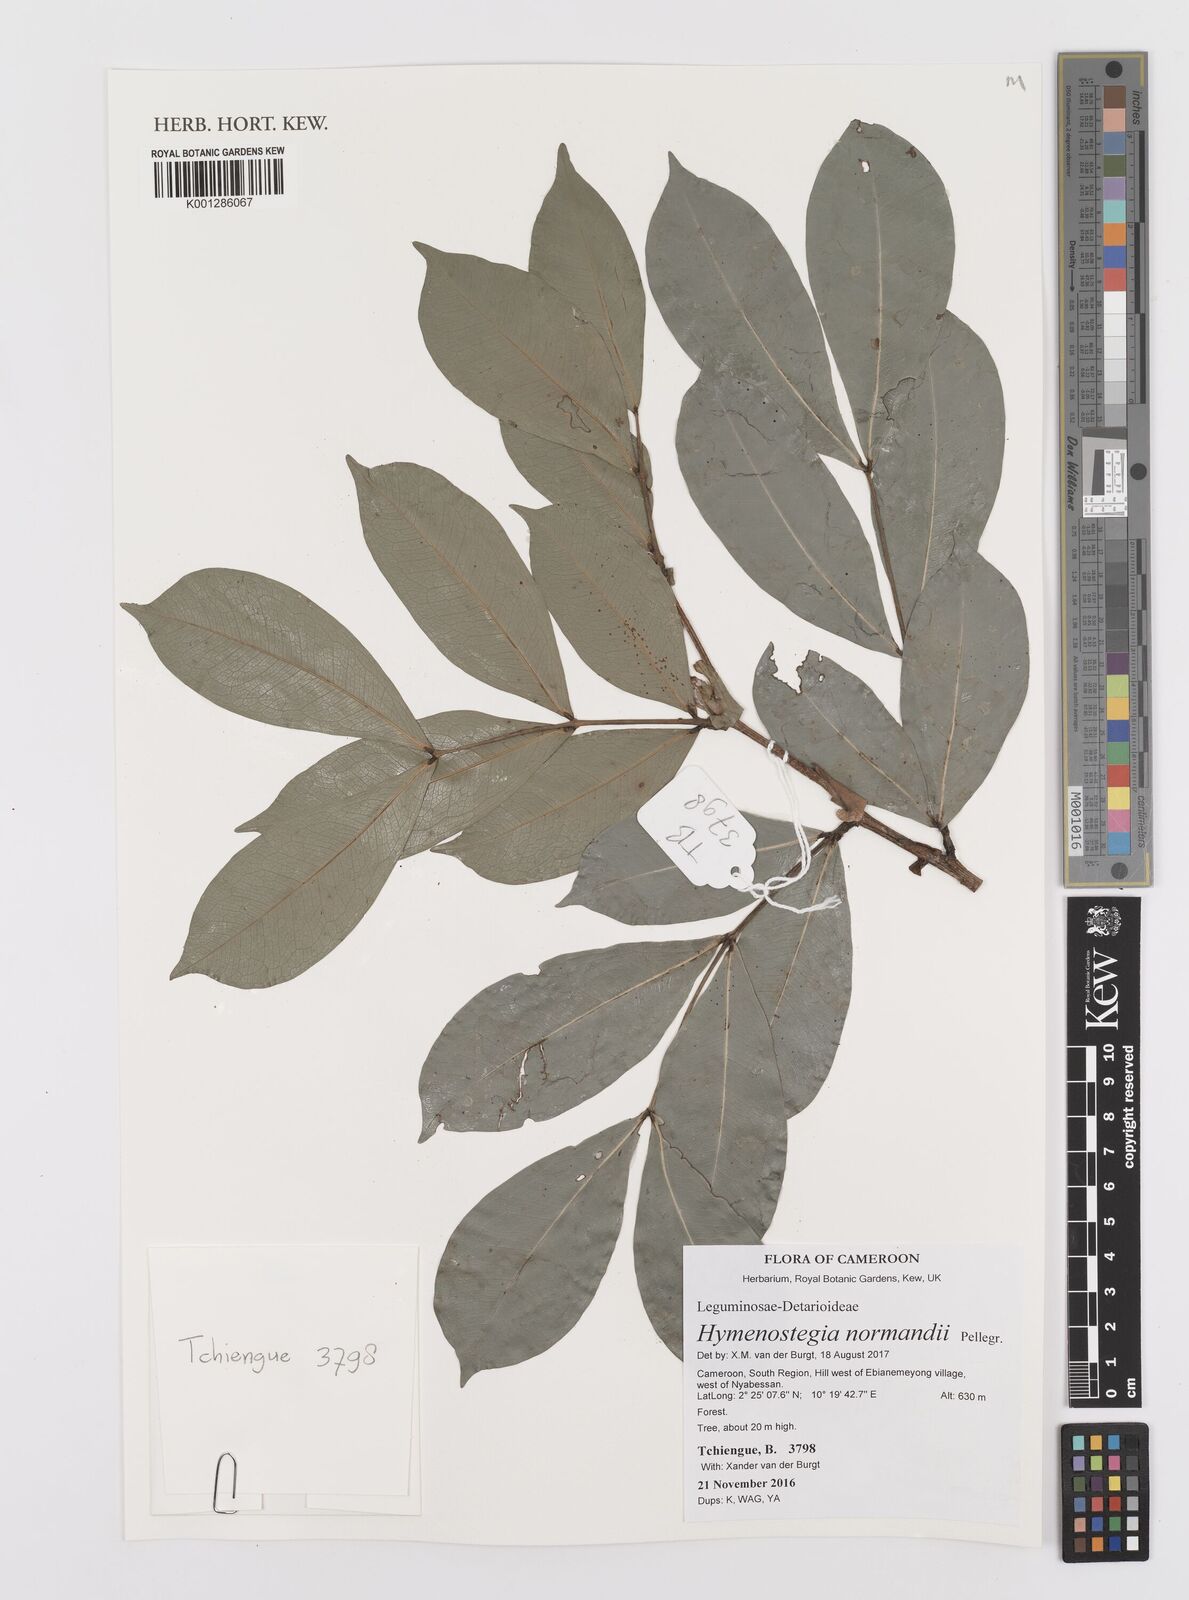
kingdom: Plantae
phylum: Tracheophyta
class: Magnoliopsida
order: Fabales
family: Fabaceae
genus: Hymenostegia
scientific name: Hymenostegia normandii
